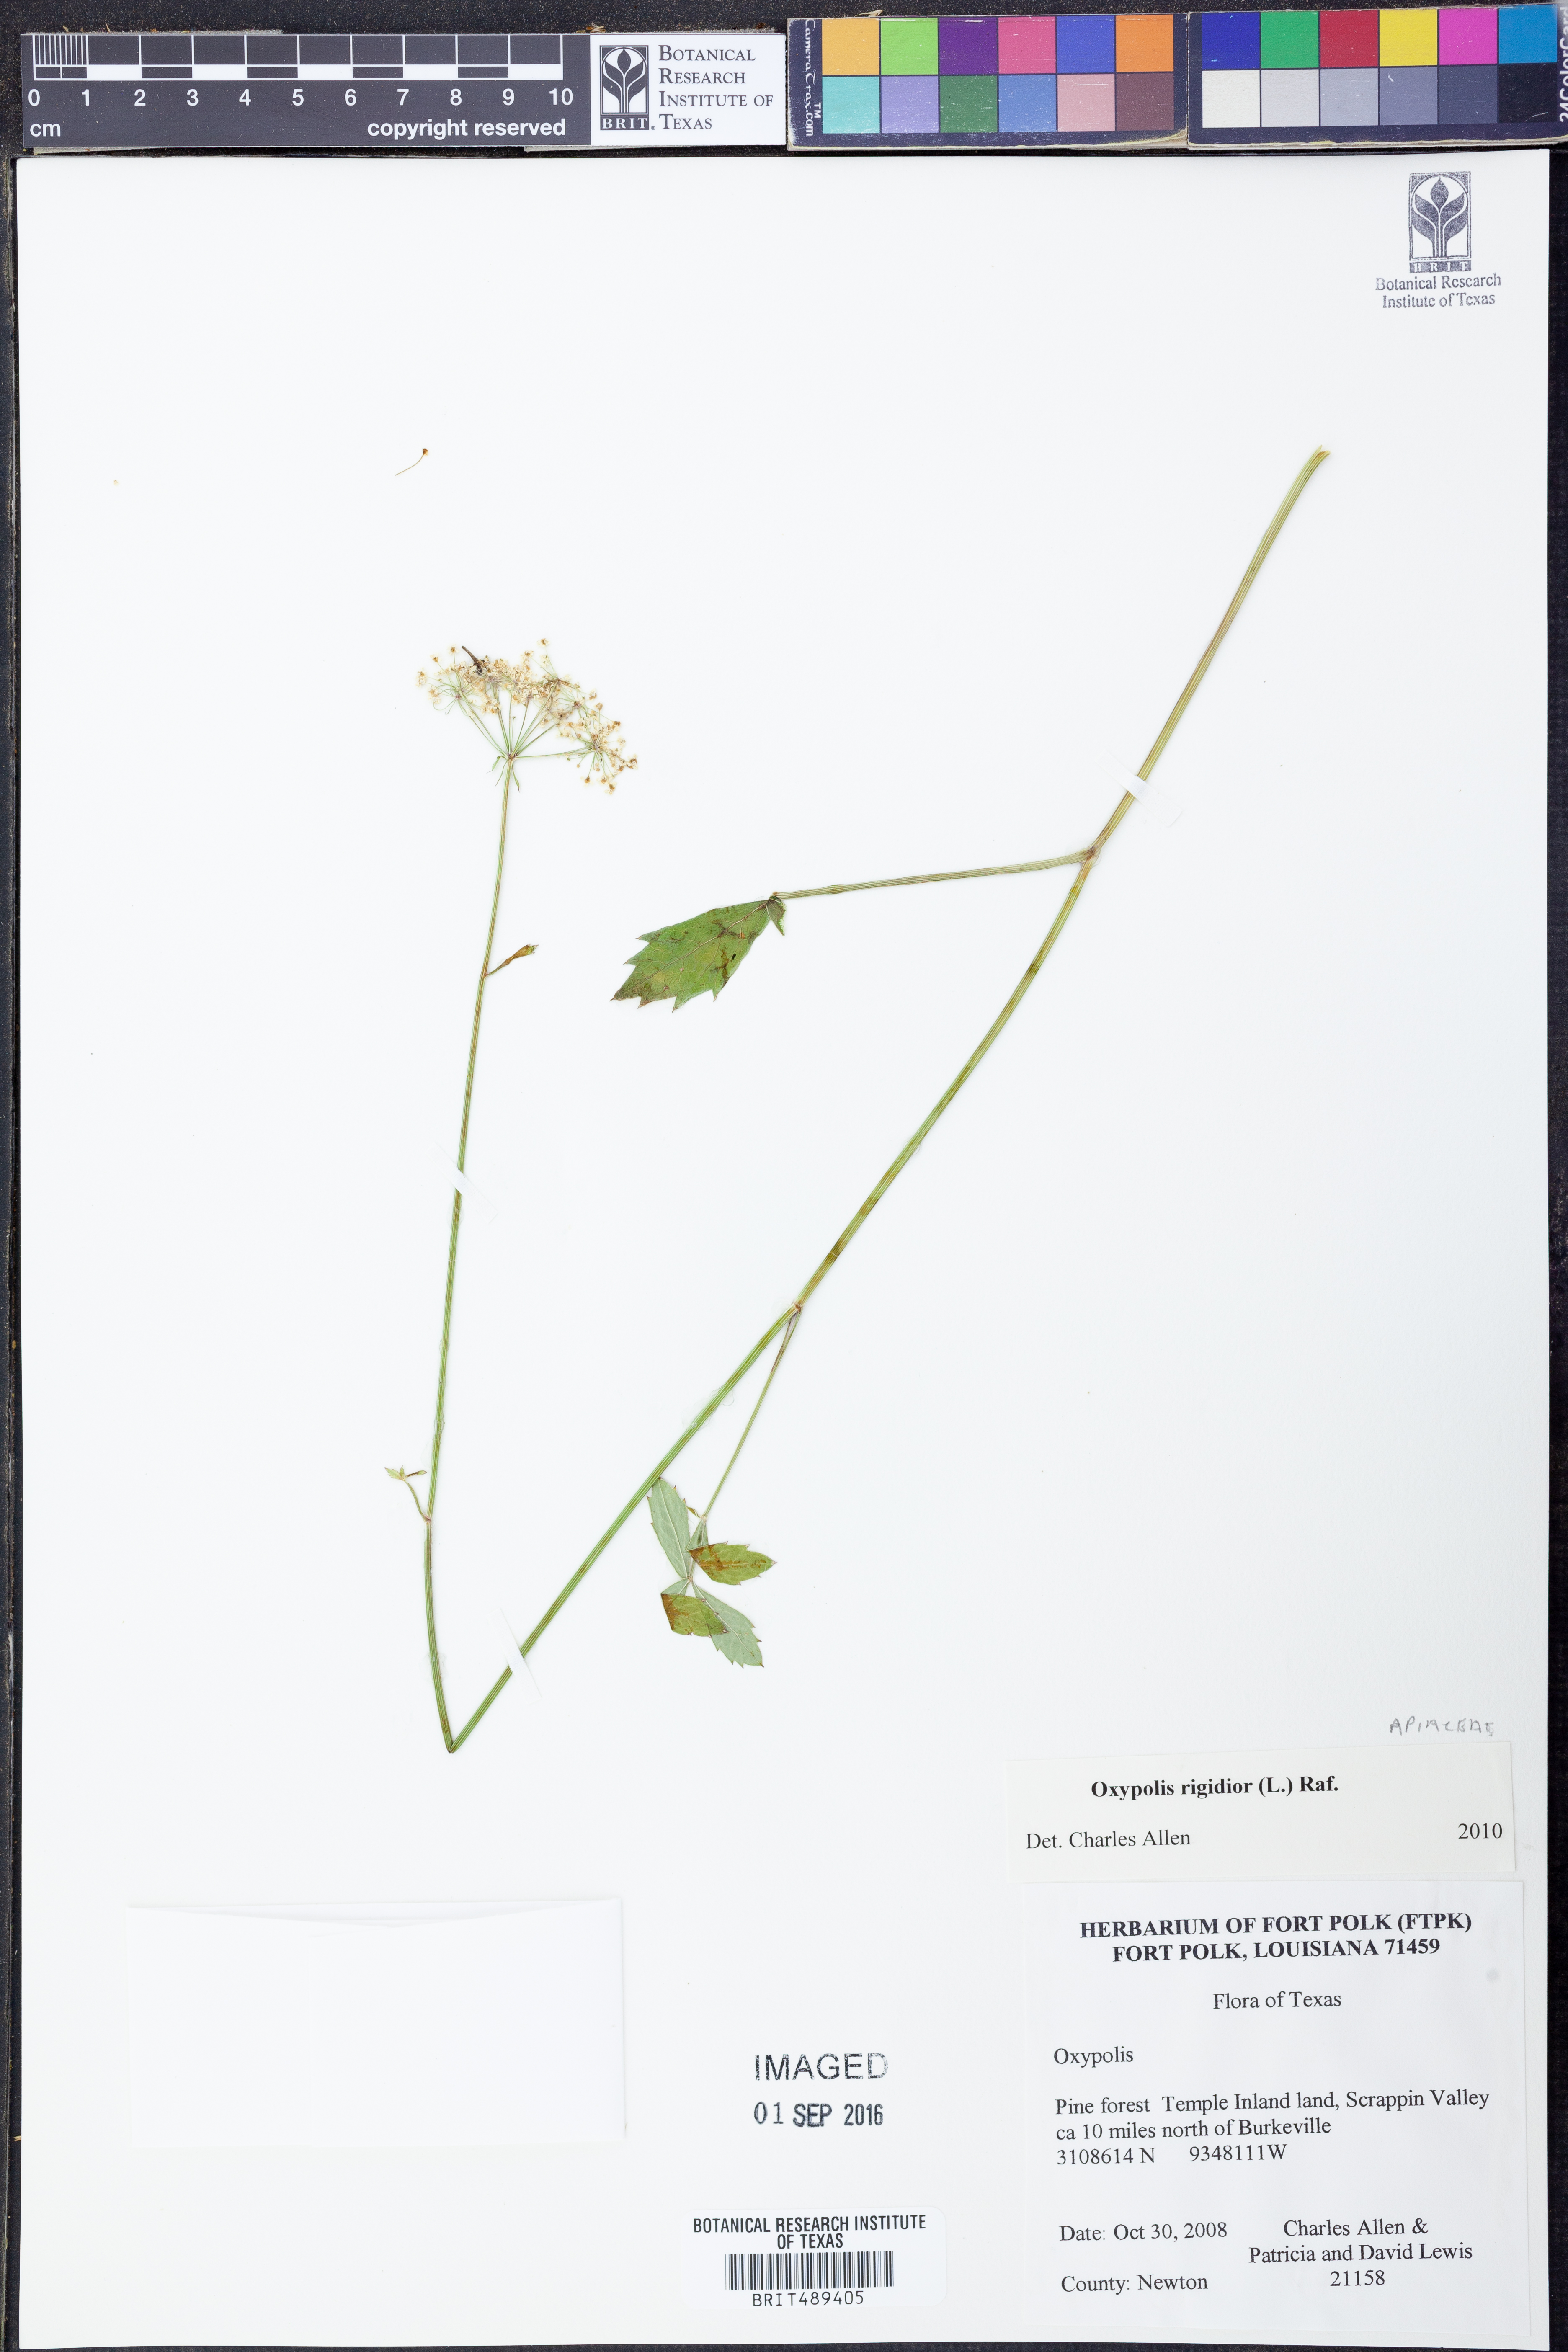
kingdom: Plantae
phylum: Tracheophyta
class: Magnoliopsida
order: Apiales
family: Apiaceae
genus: Oxypolis
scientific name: Oxypolis rigidior
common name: Cowbane
